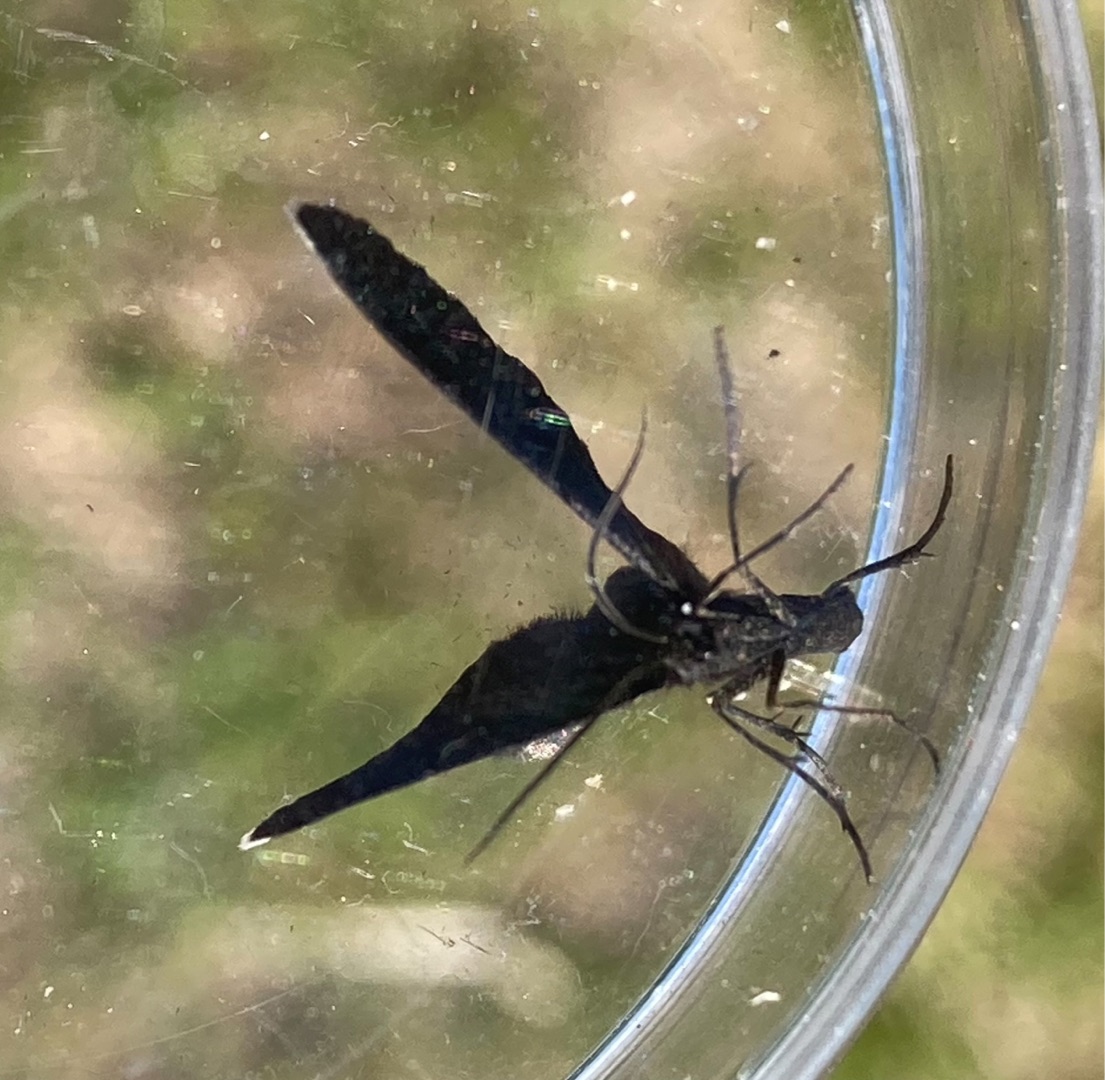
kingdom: Animalia
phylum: Arthropoda
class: Insecta
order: Lepidoptera
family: Geometridae
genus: Odezia
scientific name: Odezia atrata
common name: Sort måler
